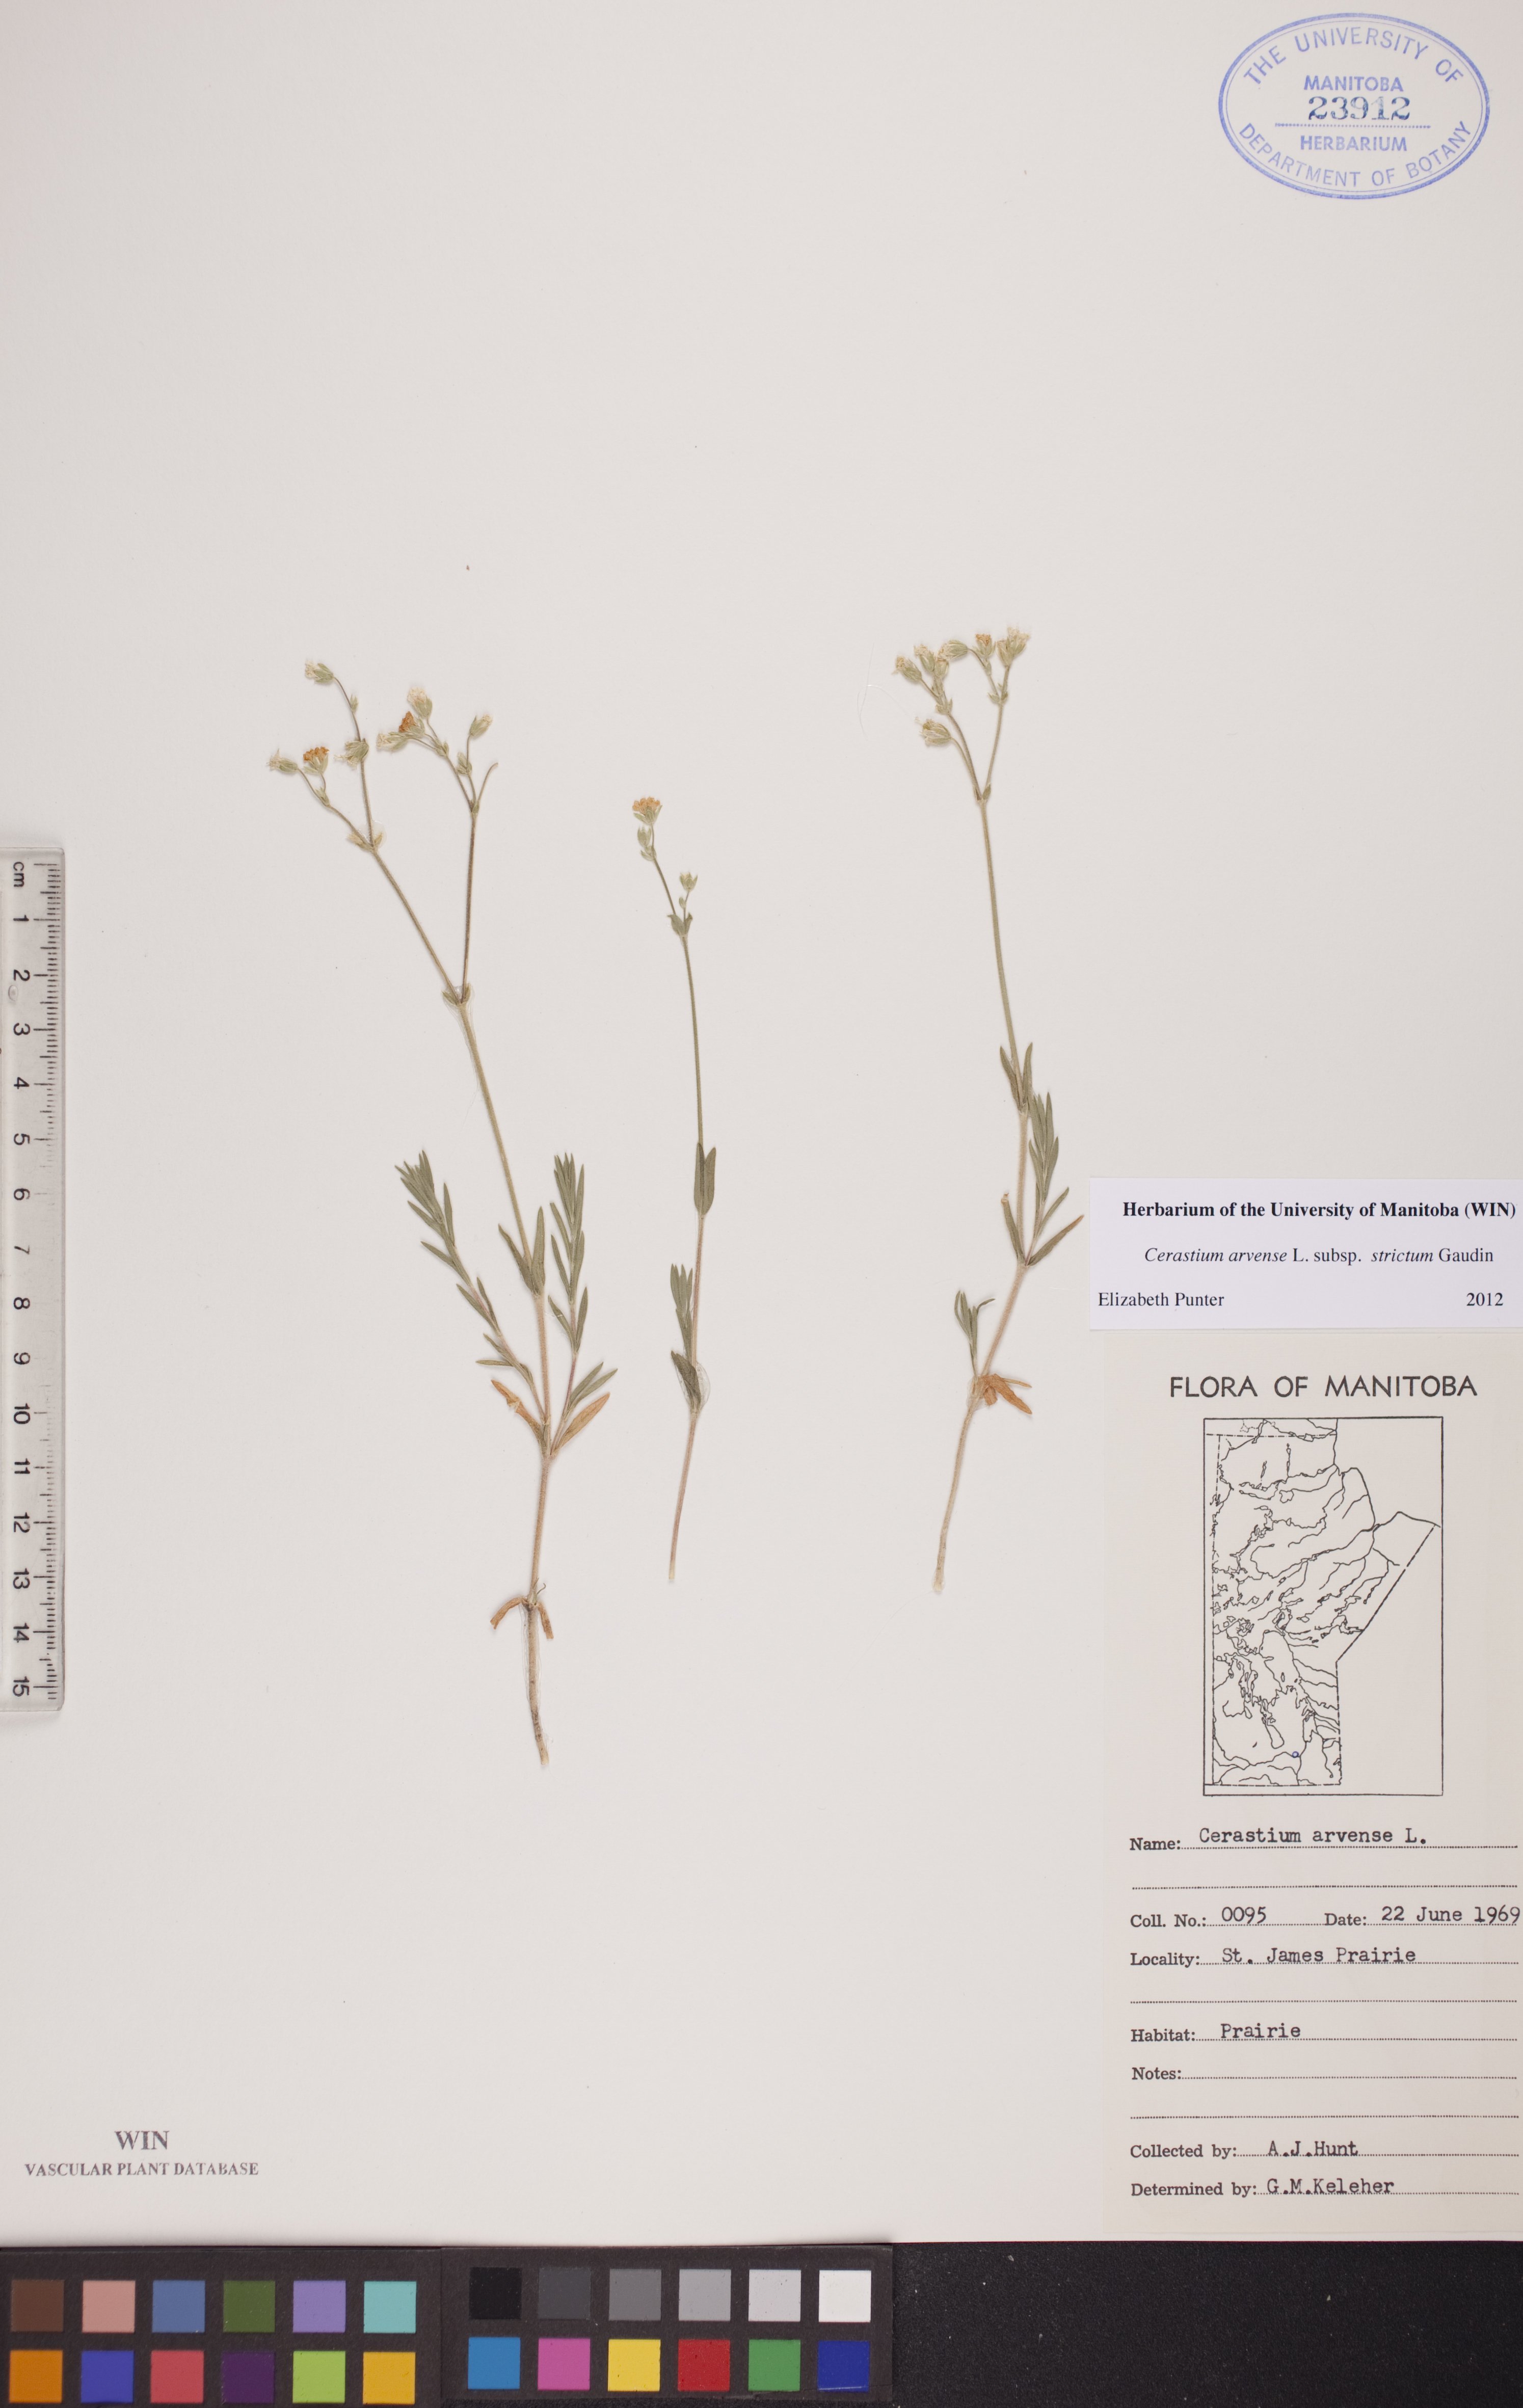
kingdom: Plantae
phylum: Tracheophyta
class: Magnoliopsida
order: Caryophyllales
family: Caryophyllaceae
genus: Cerastium
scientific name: Cerastium elongatum
